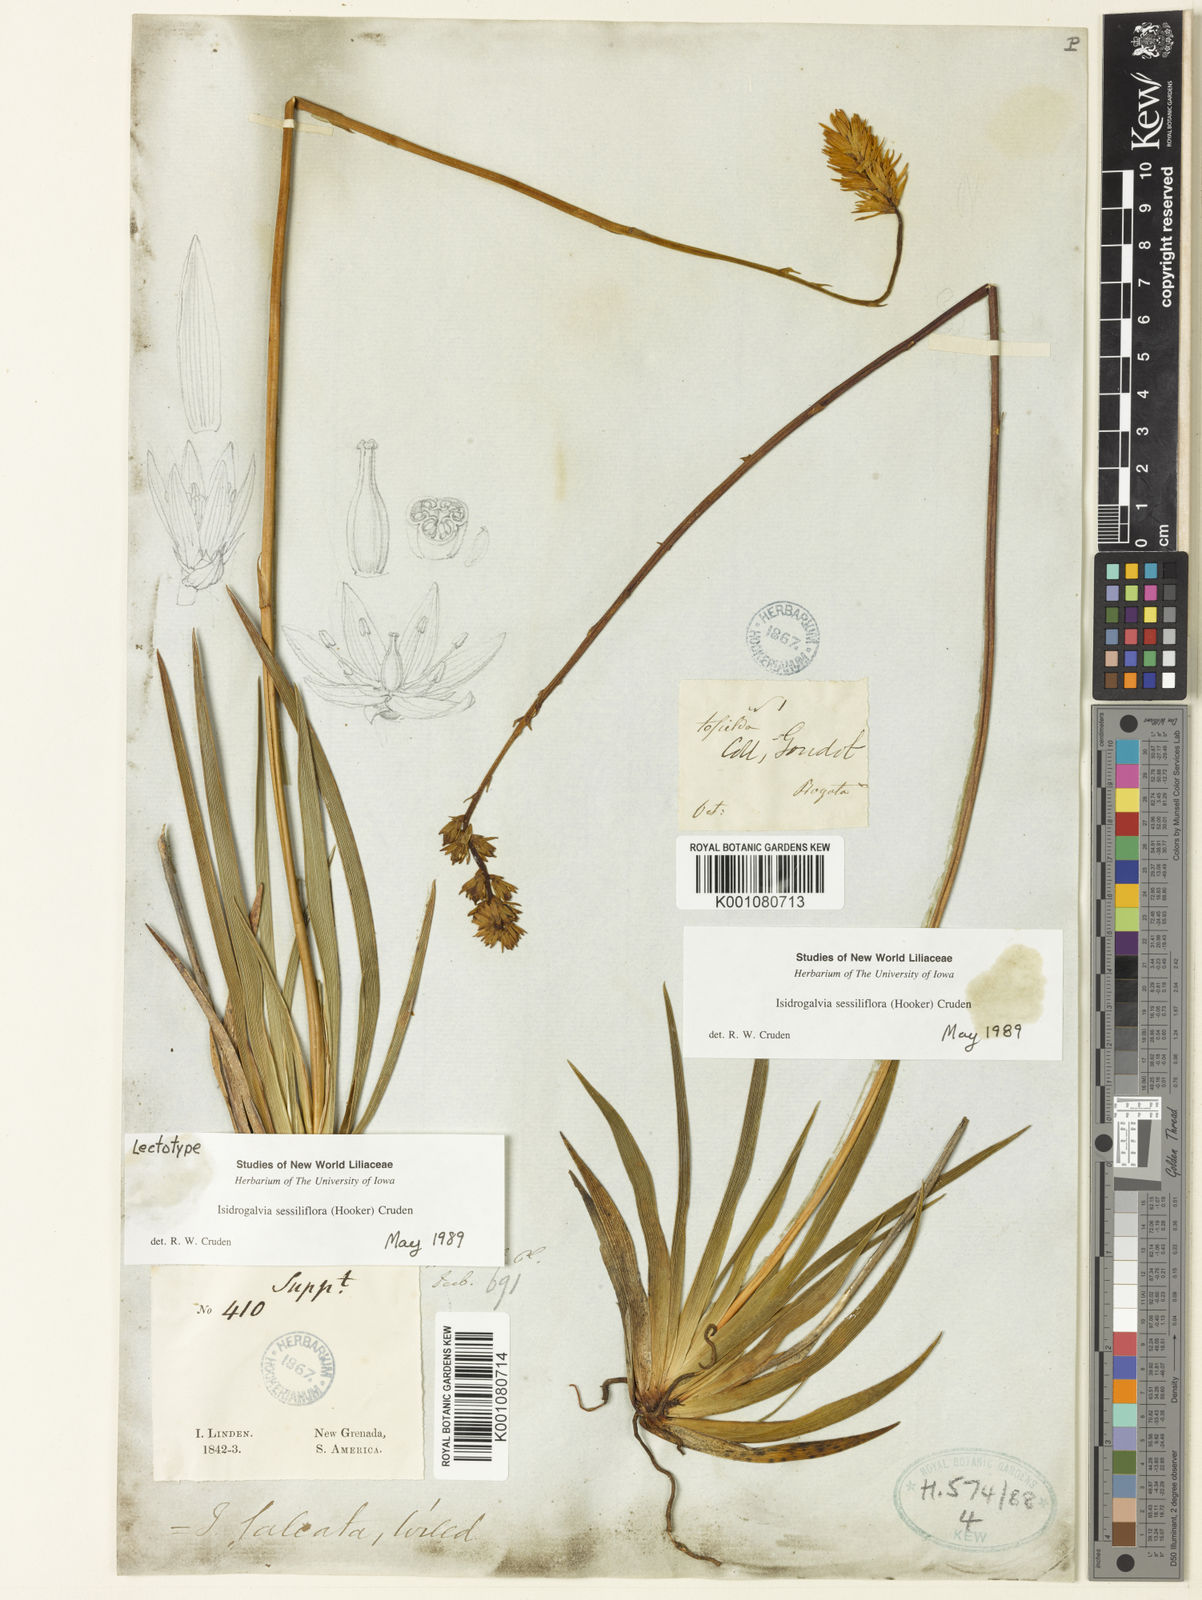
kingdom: Plantae
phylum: Tracheophyta
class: Liliopsida
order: Alismatales
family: Tofieldiaceae
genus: Harperocallis
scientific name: Harperocallis sessiliflora
